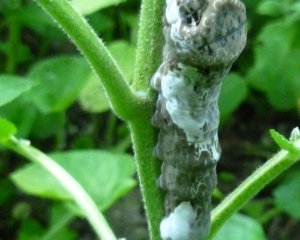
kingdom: Animalia
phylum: Arthropoda
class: Insecta
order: Lepidoptera
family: Papilionidae
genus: Papilio
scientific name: Papilio cresphontes
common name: Eastern Giant Swallowtail
